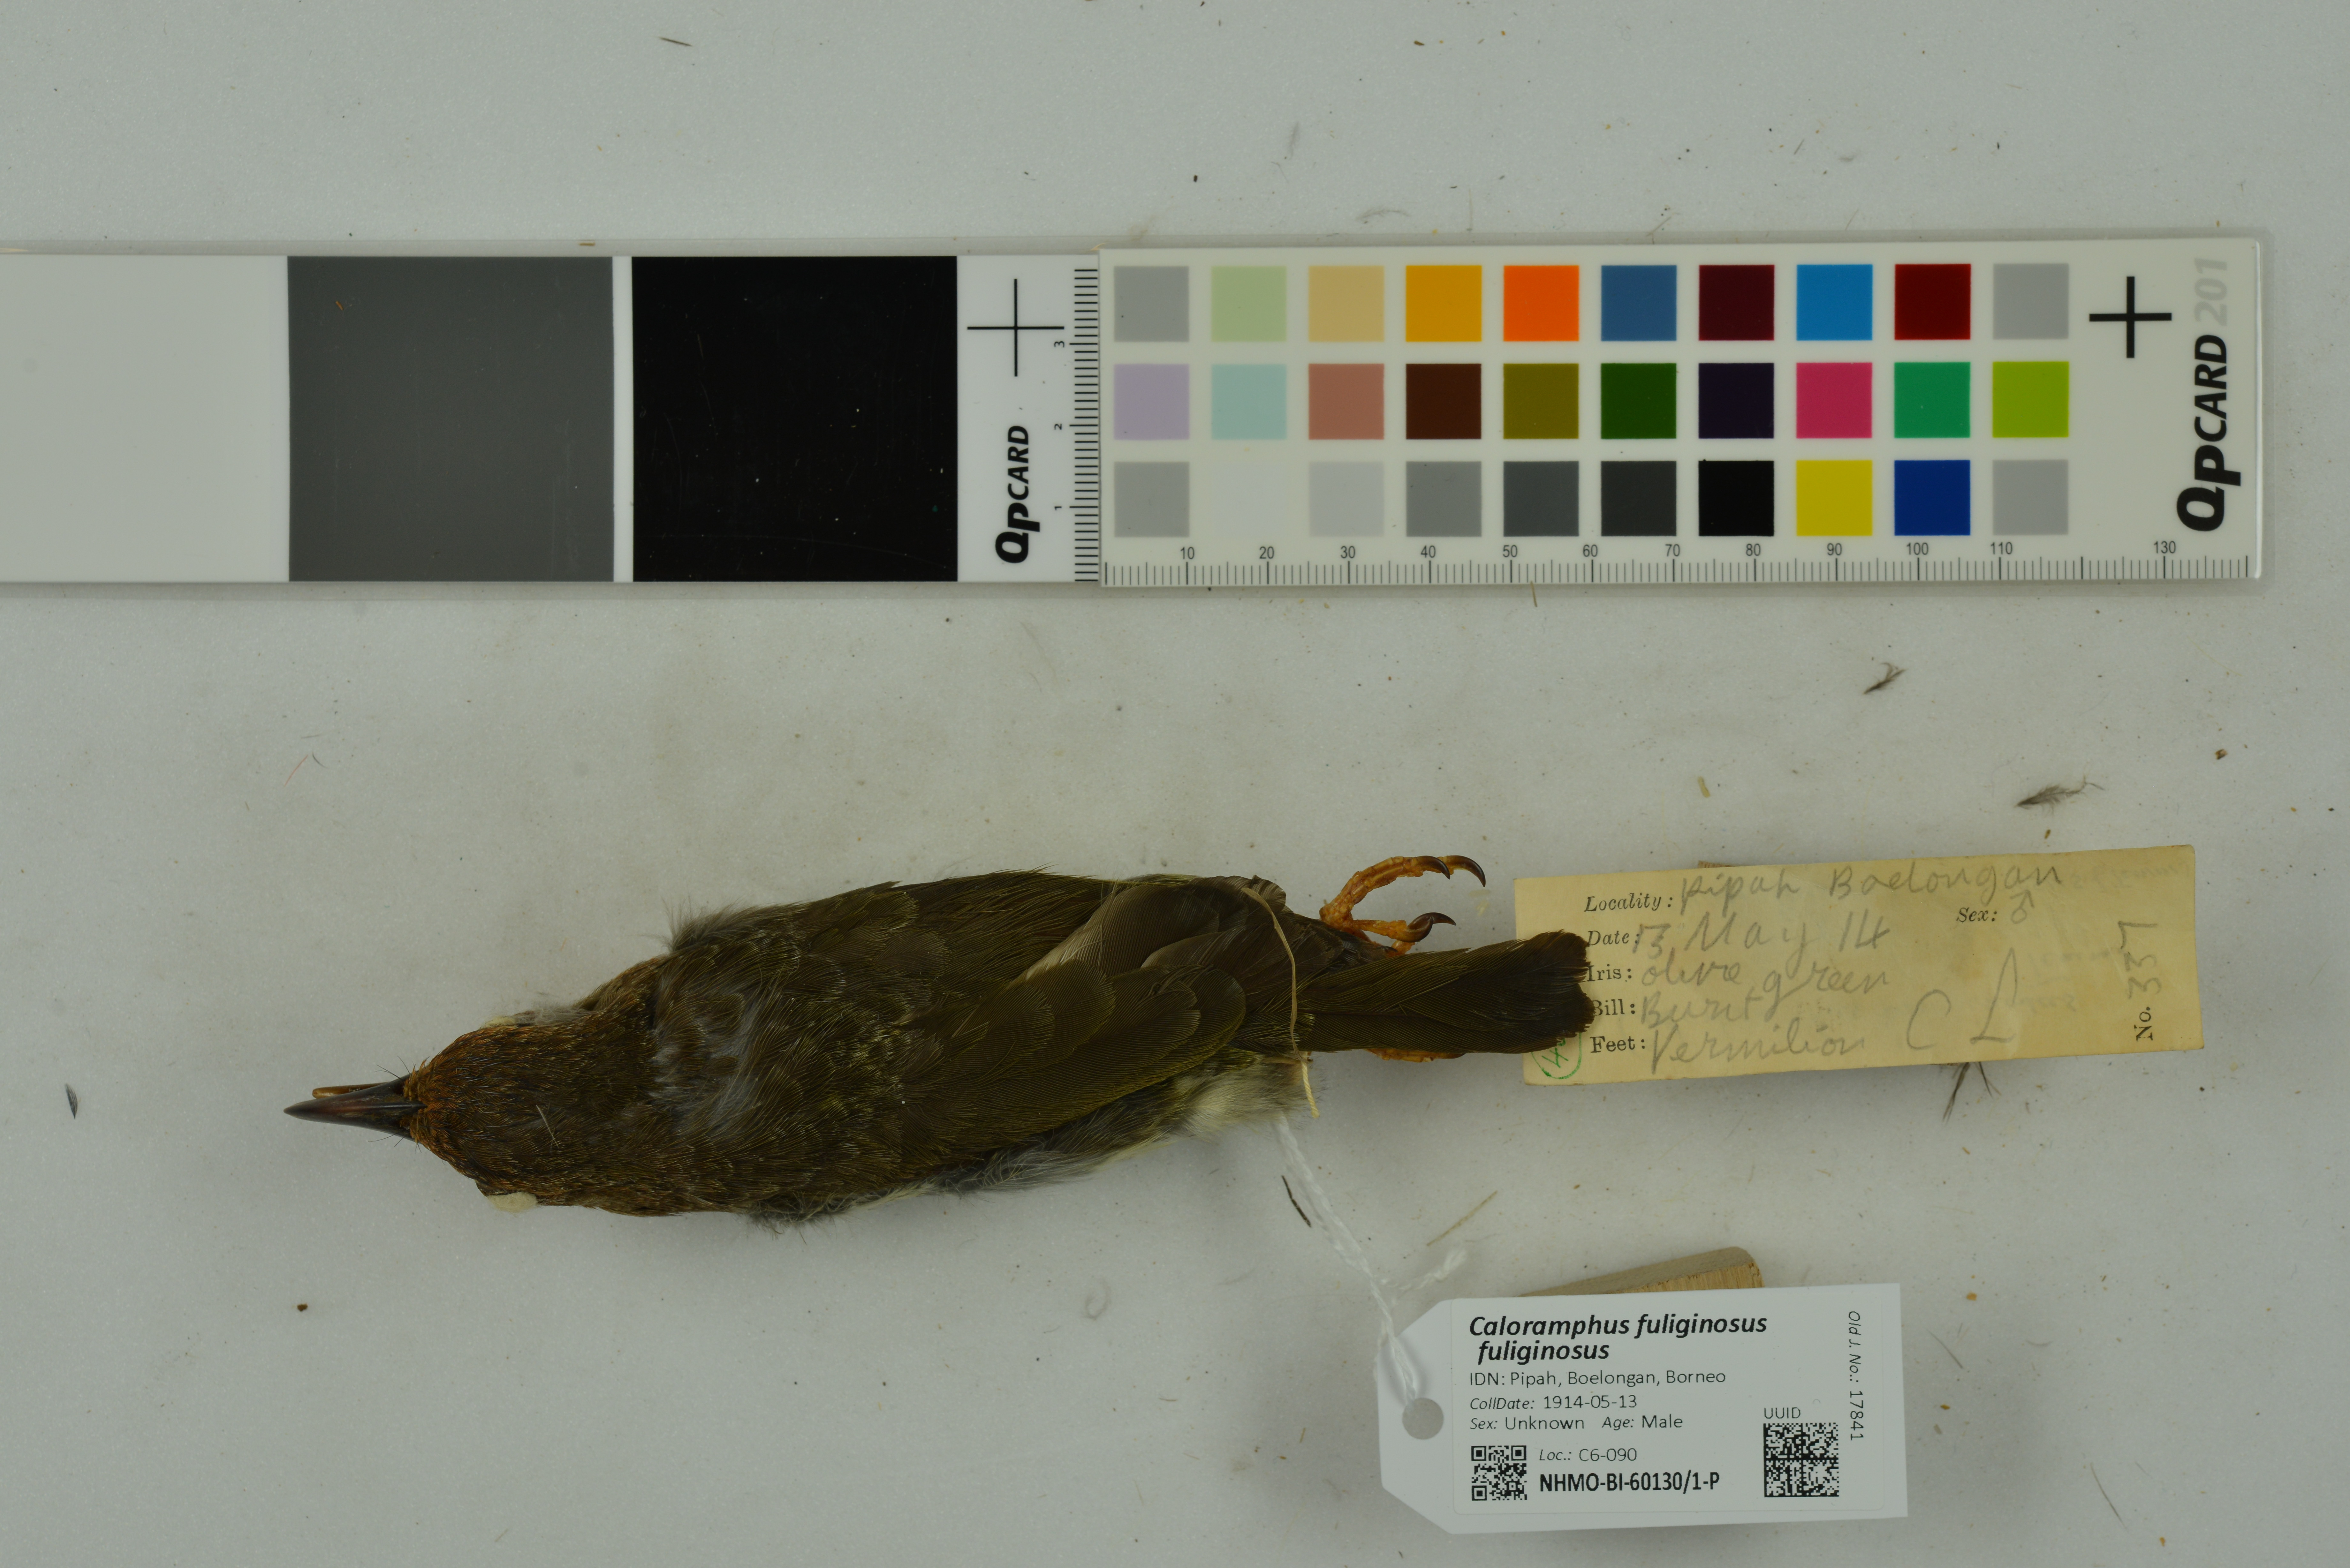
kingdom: Animalia
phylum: Chordata
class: Aves
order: Piciformes
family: Megalaimidae
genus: Caloramphus
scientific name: Caloramphus fuliginosus
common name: Brown barbet
